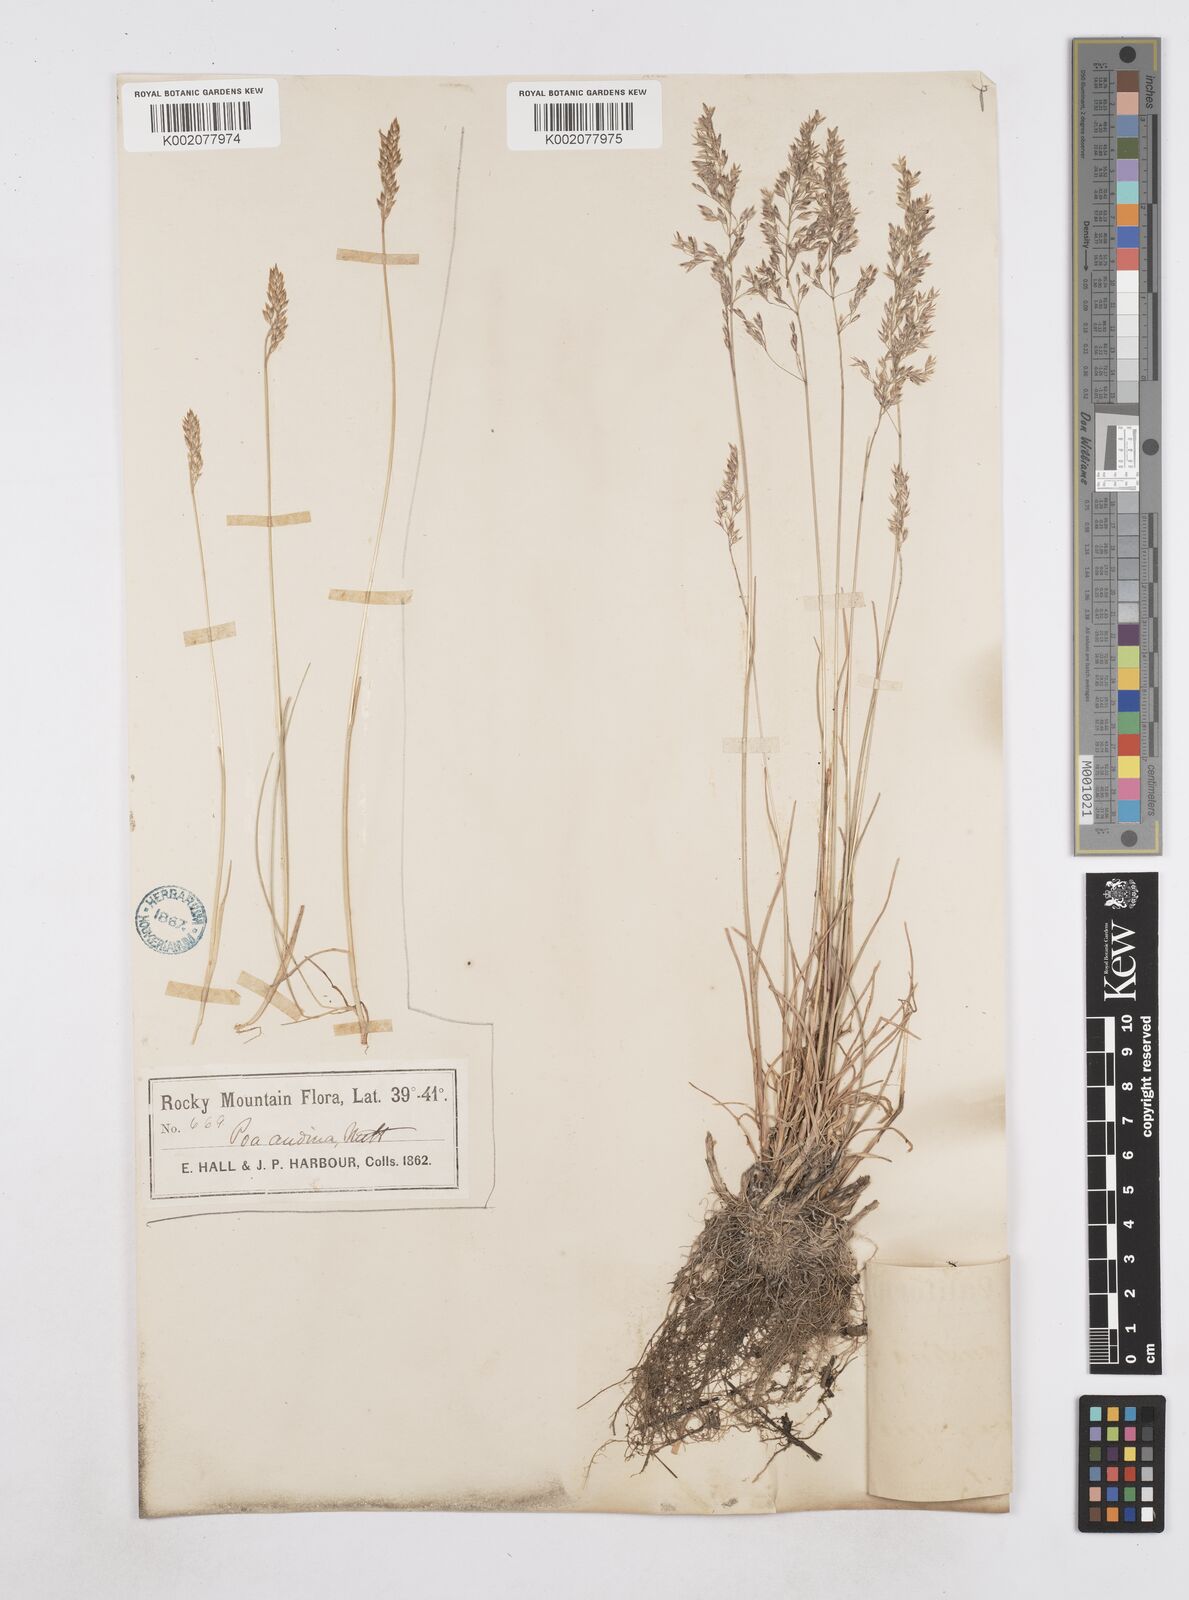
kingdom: Plantae
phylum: Tracheophyta
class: Liliopsida
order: Poales
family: Poaceae
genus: Poa
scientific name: Poa arida
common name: Plains bluegrass
